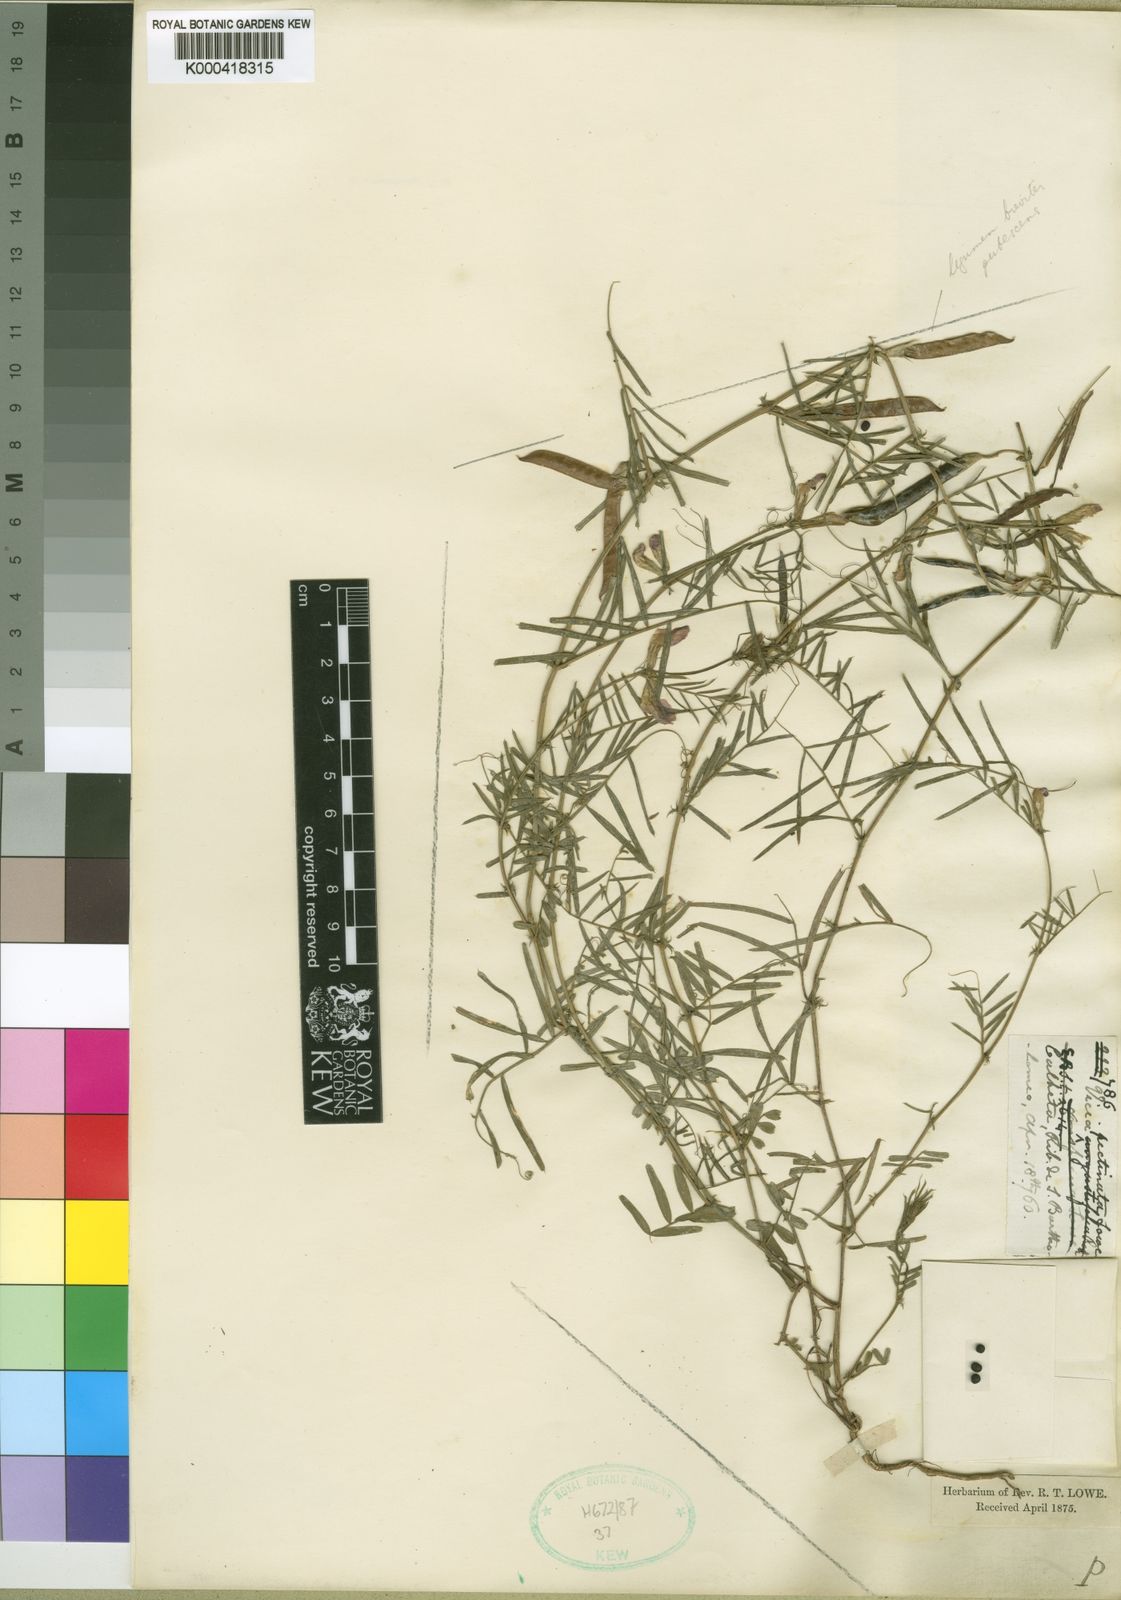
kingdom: Plantae
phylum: Tracheophyta
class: Magnoliopsida
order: Fabales
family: Fabaceae
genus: Vicia
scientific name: Vicia sativa
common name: Garden vetch
